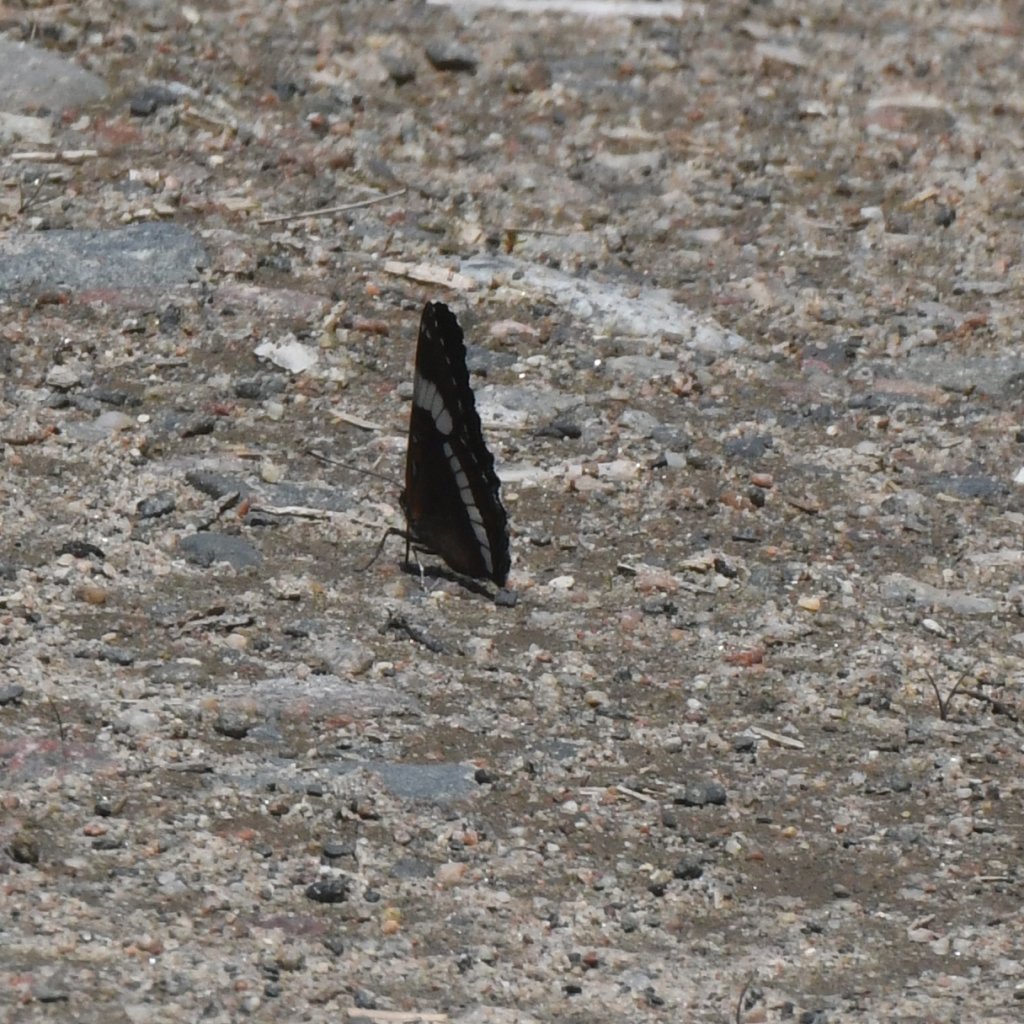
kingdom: Animalia
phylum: Arthropoda
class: Insecta
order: Lepidoptera
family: Nymphalidae
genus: Limenitis
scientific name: Limenitis arthemis
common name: Red-spotted Admiral
